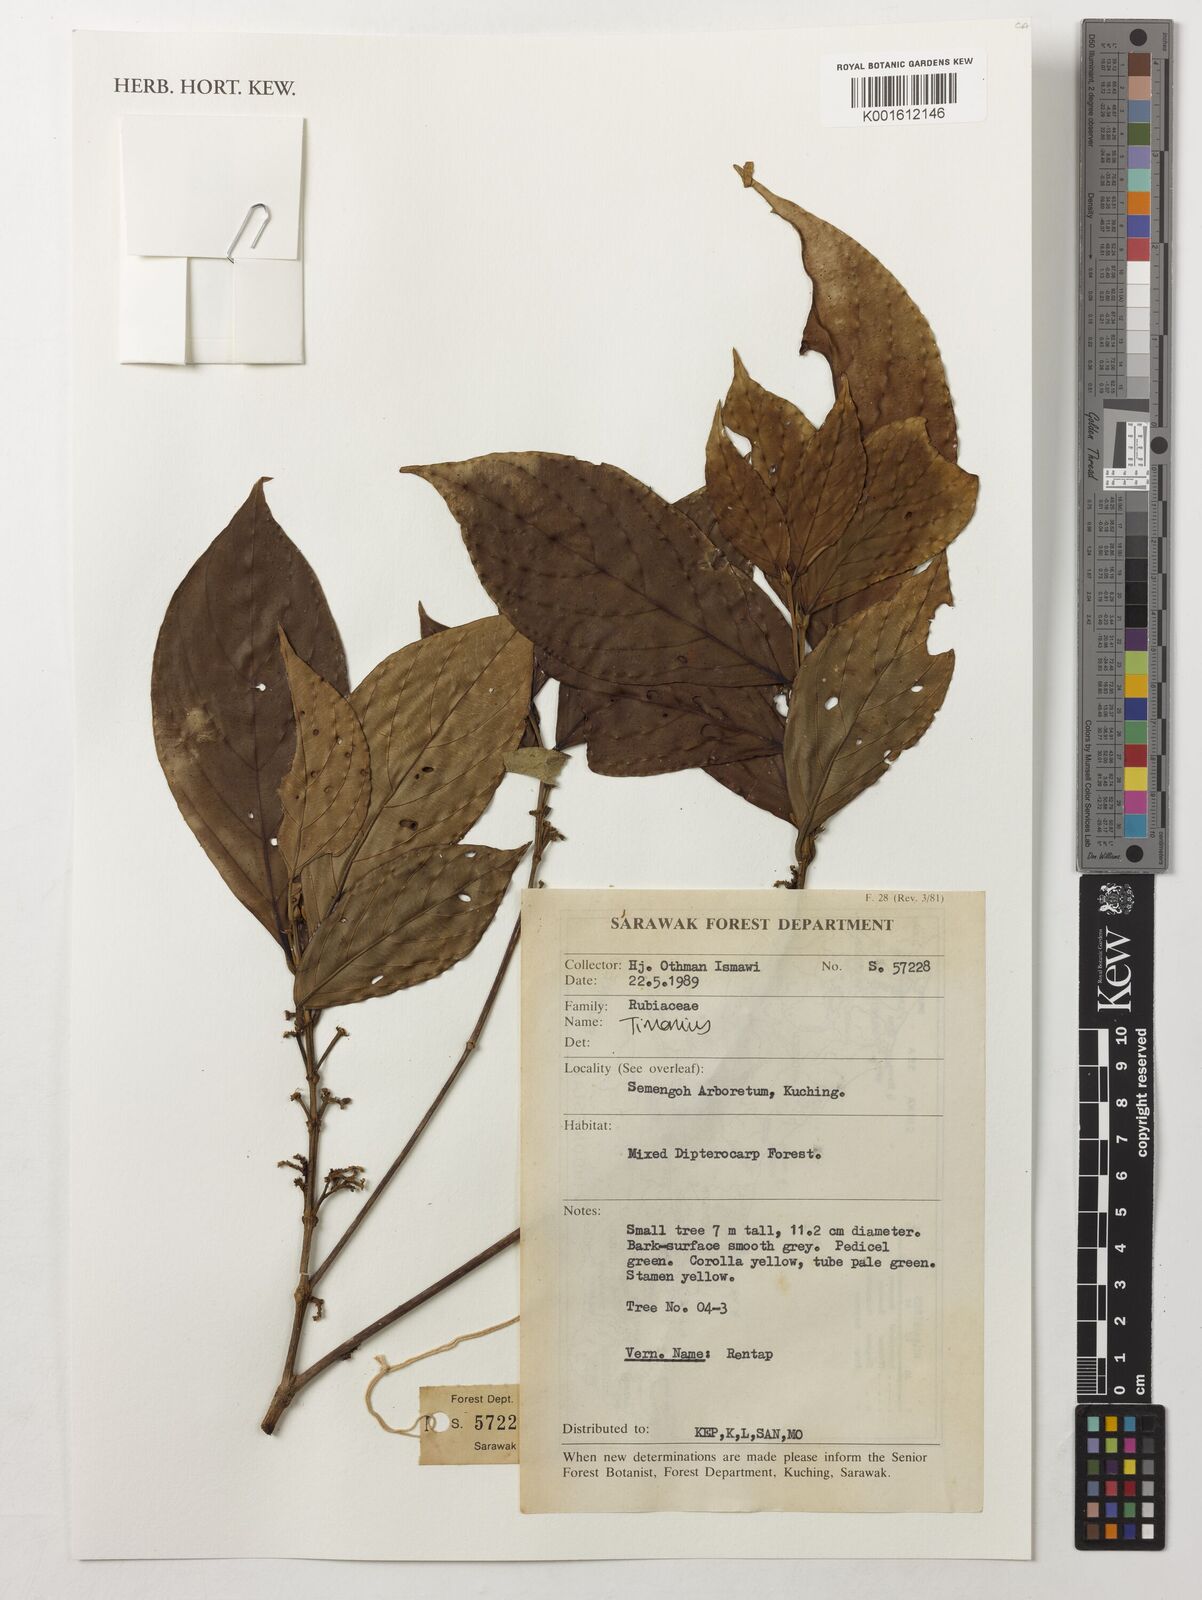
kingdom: Plantae
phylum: Tracheophyta
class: Magnoliopsida
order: Gentianales
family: Rubiaceae
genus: Timonius
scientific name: Timonius
